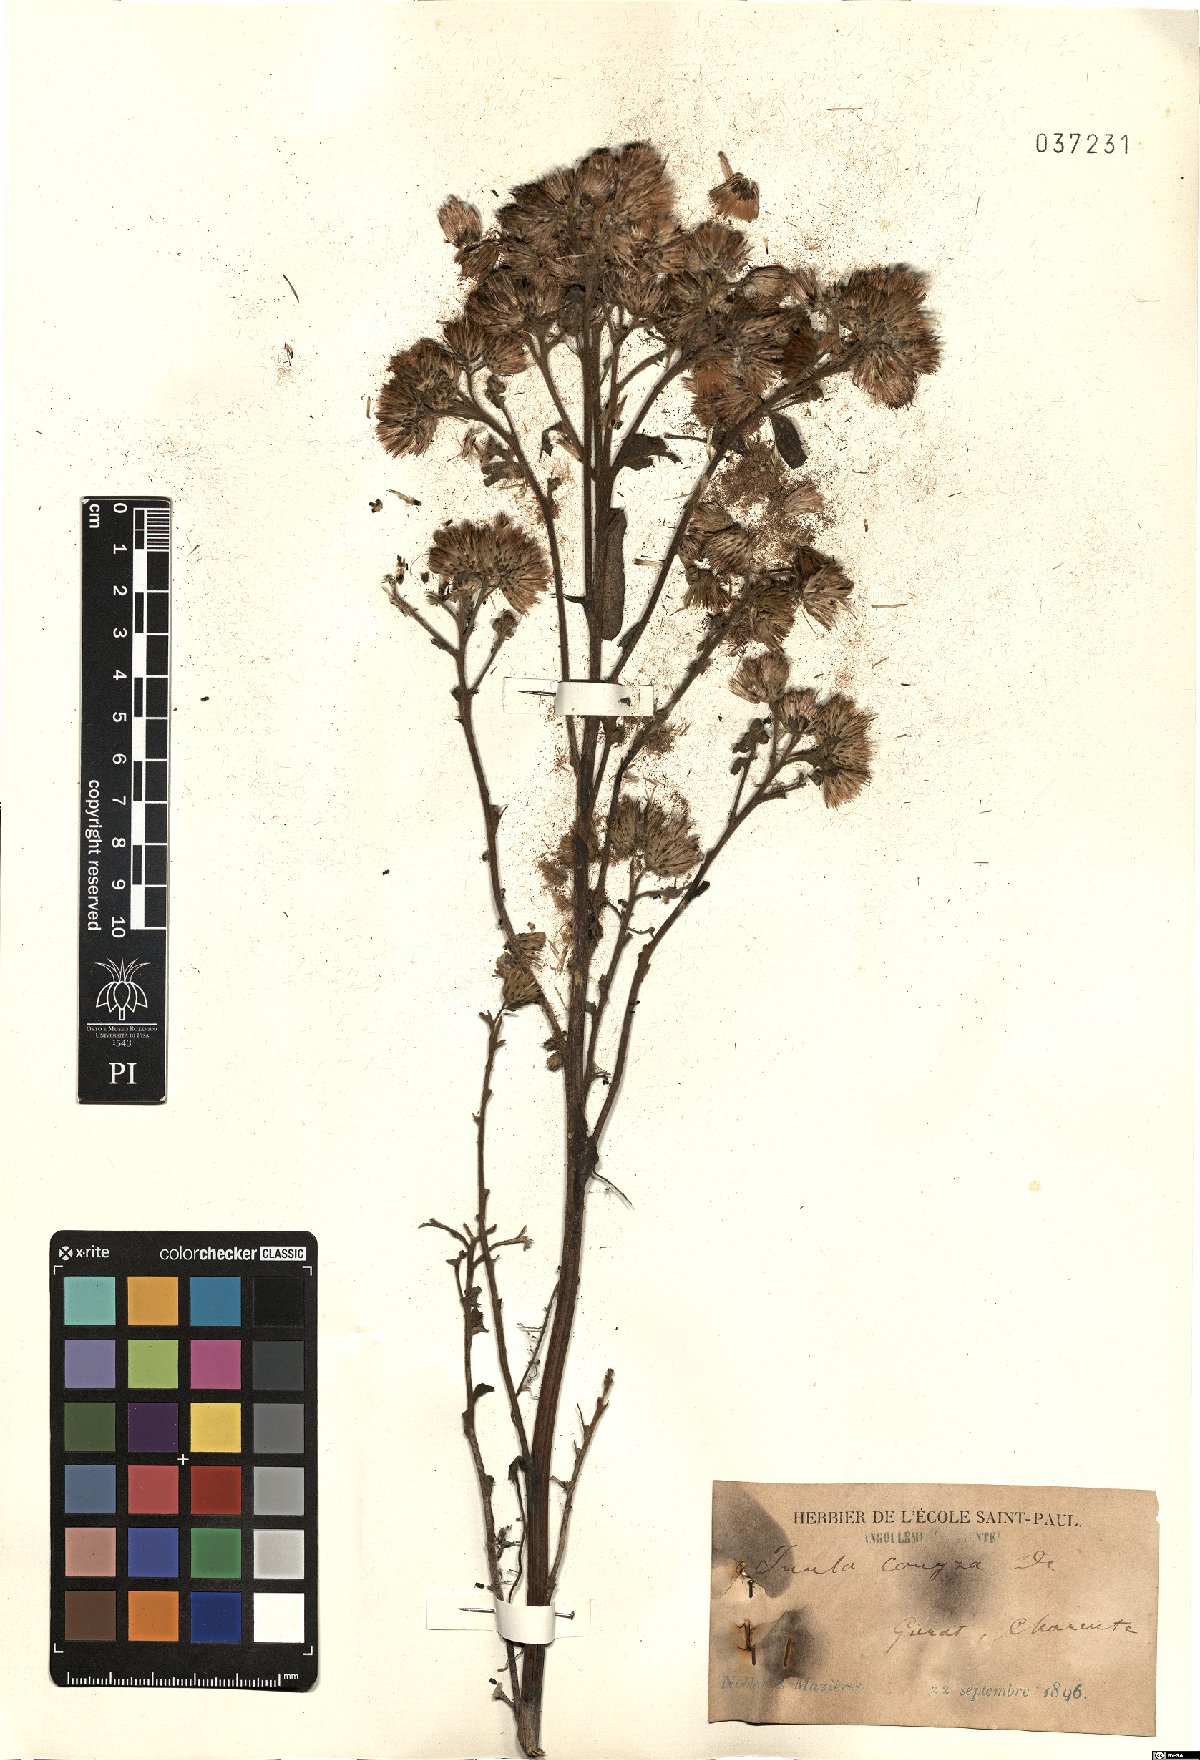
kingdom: Plantae
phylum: Tracheophyta
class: Magnoliopsida
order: Asterales
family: Asteraceae
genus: Pentanema
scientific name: Pentanema squarrosum
